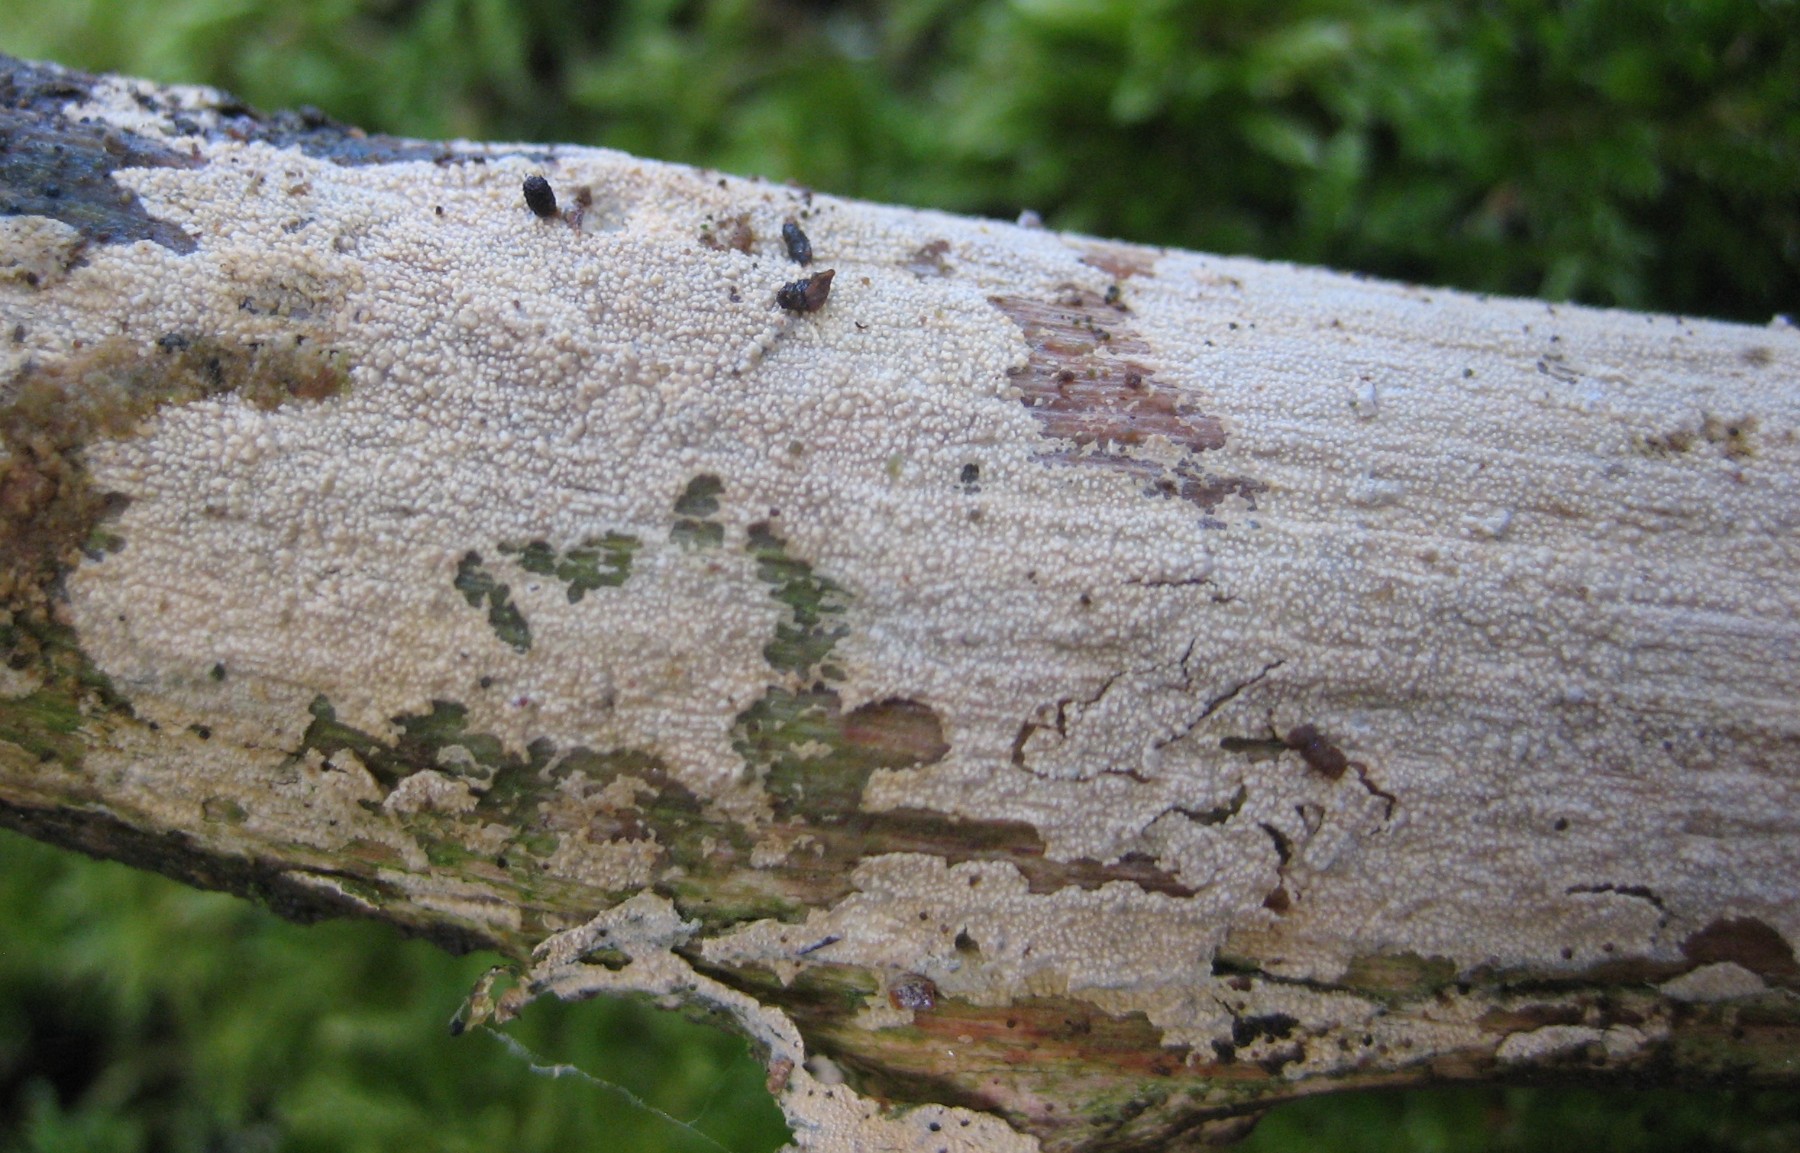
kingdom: Fungi
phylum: Basidiomycota
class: Agaricomycetes
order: Corticiales
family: Corticiaceae
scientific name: Corticiaceae
